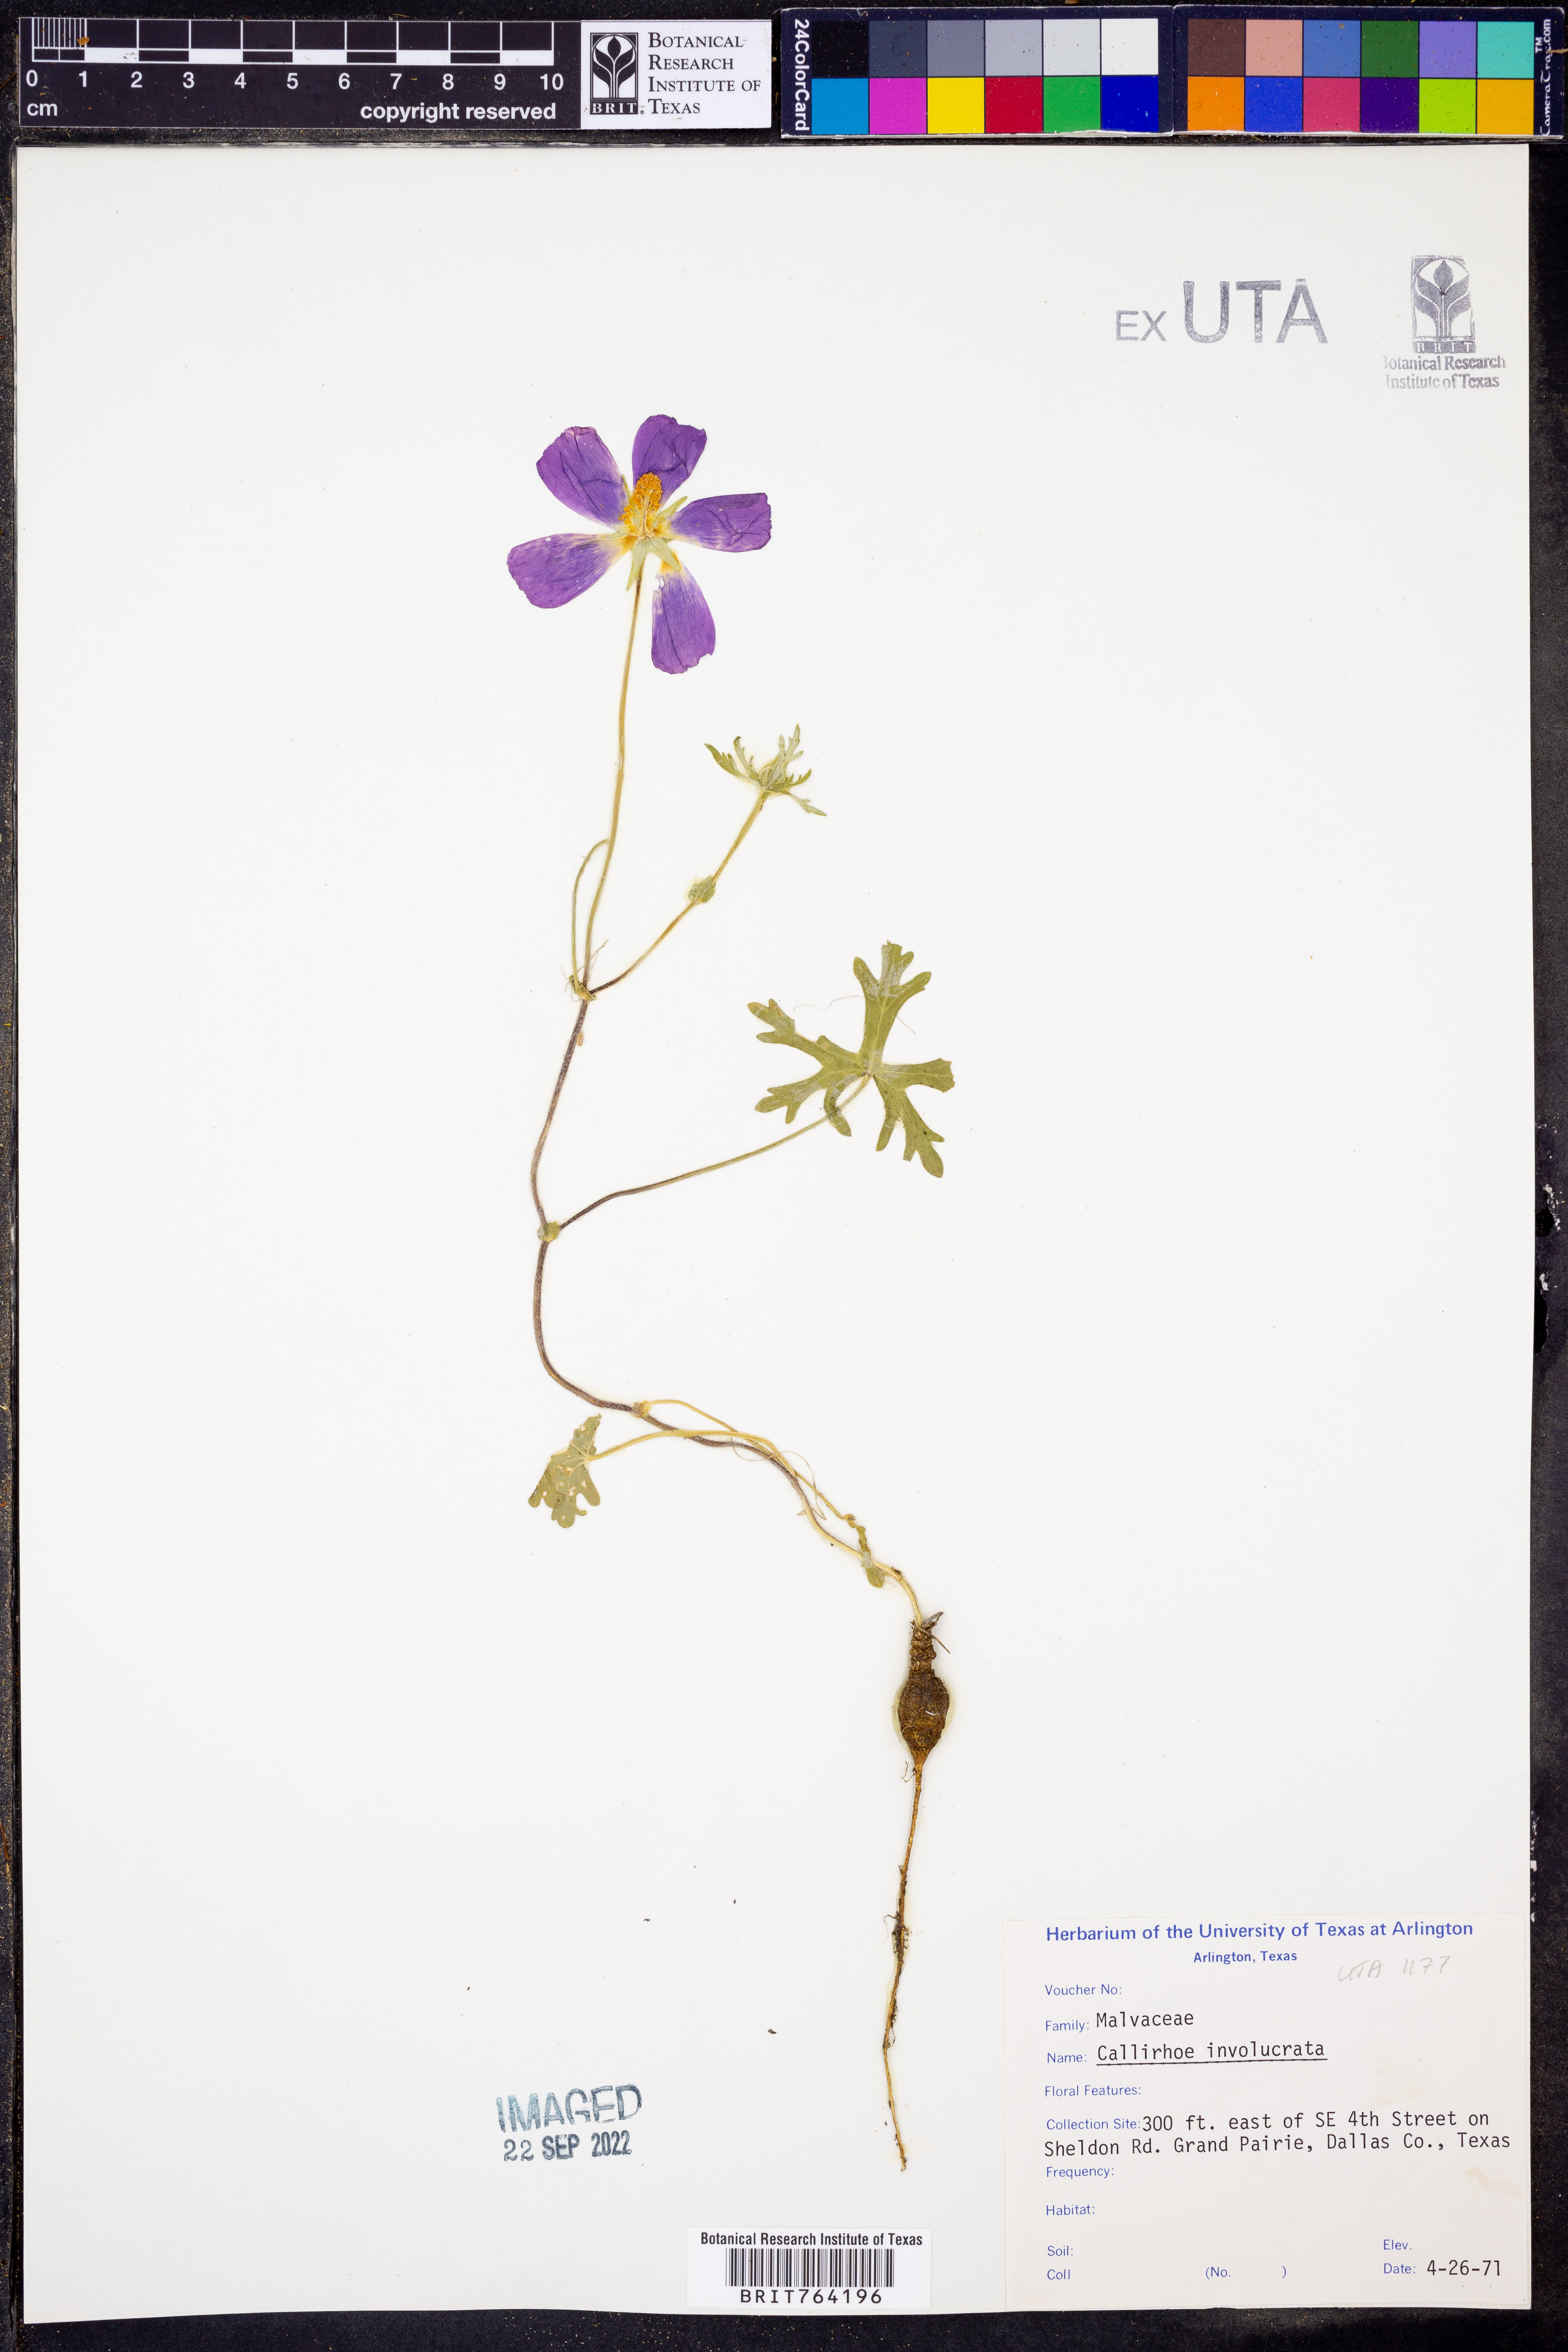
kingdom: Plantae
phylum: Tracheophyta
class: Magnoliopsida
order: Malvales
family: Malvaceae
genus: Callirhoe
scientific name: Callirhoe involucrata
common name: Purple poppy-mallow
